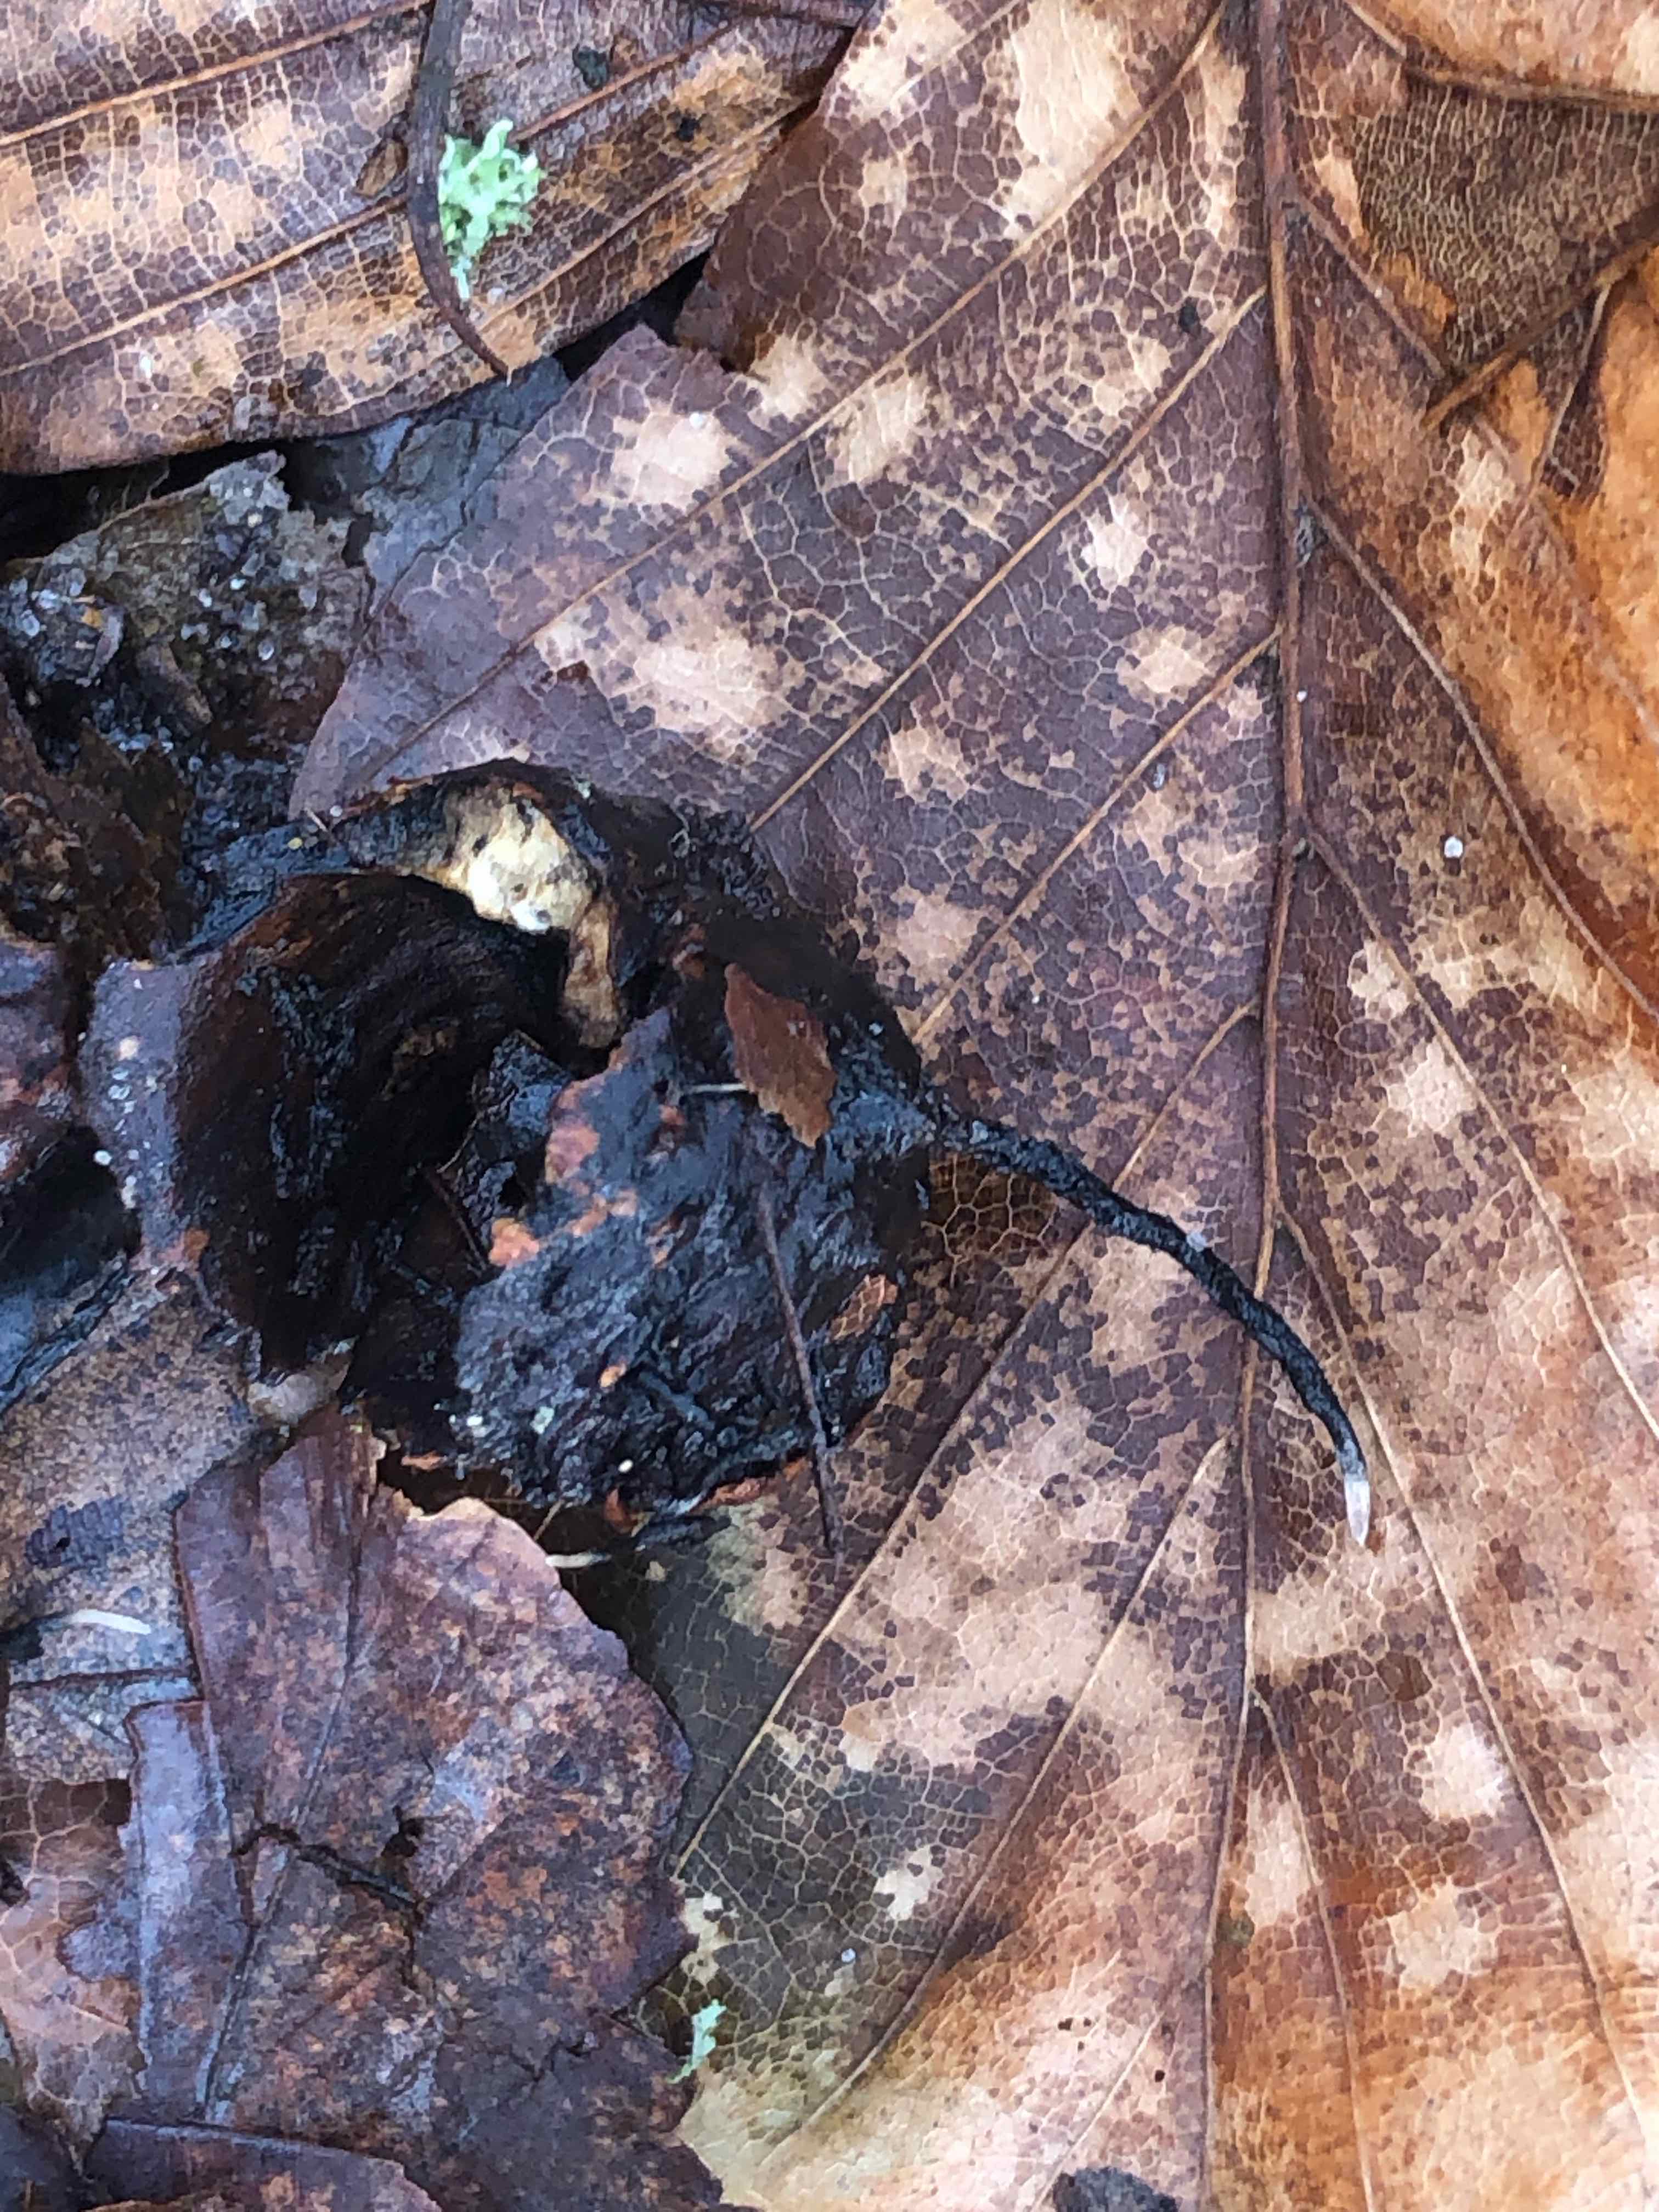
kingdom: Fungi
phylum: Ascomycota
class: Sordariomycetes
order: Xylariales
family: Xylariaceae
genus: Xylaria
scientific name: Xylaria carpophila
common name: bogskål-stødsvamp
